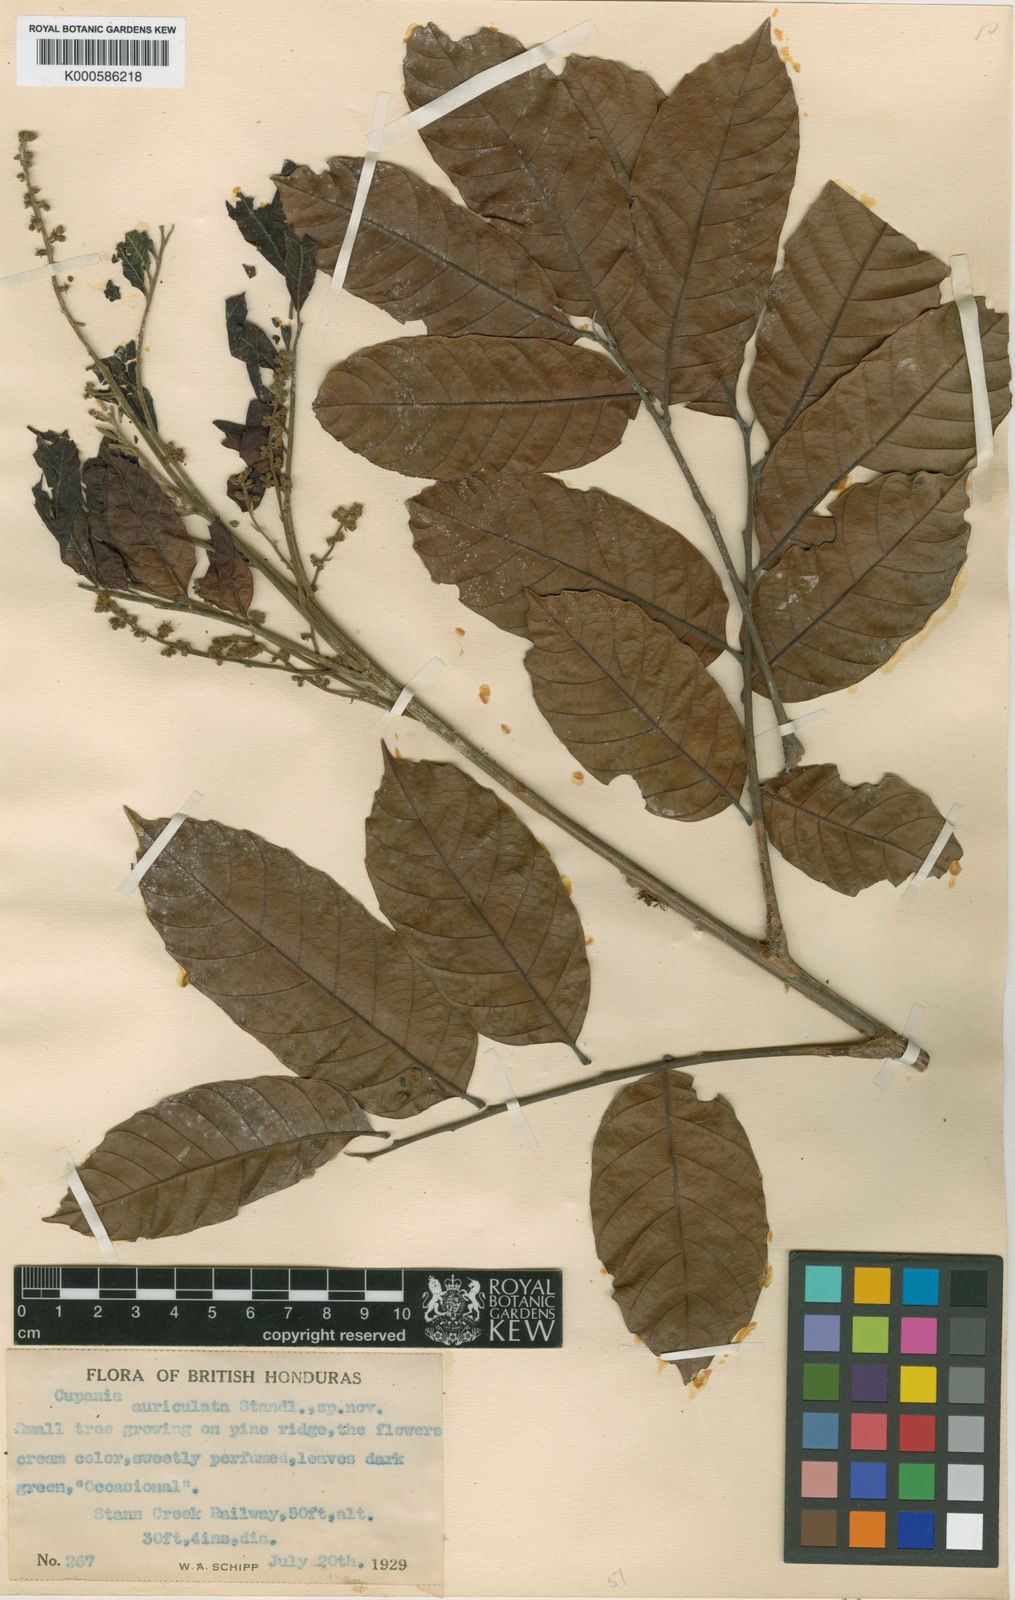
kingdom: Plantae
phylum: Tracheophyta
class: Magnoliopsida
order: Sapindales
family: Sapindaceae
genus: Cupania
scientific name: Cupania scrobiculata
